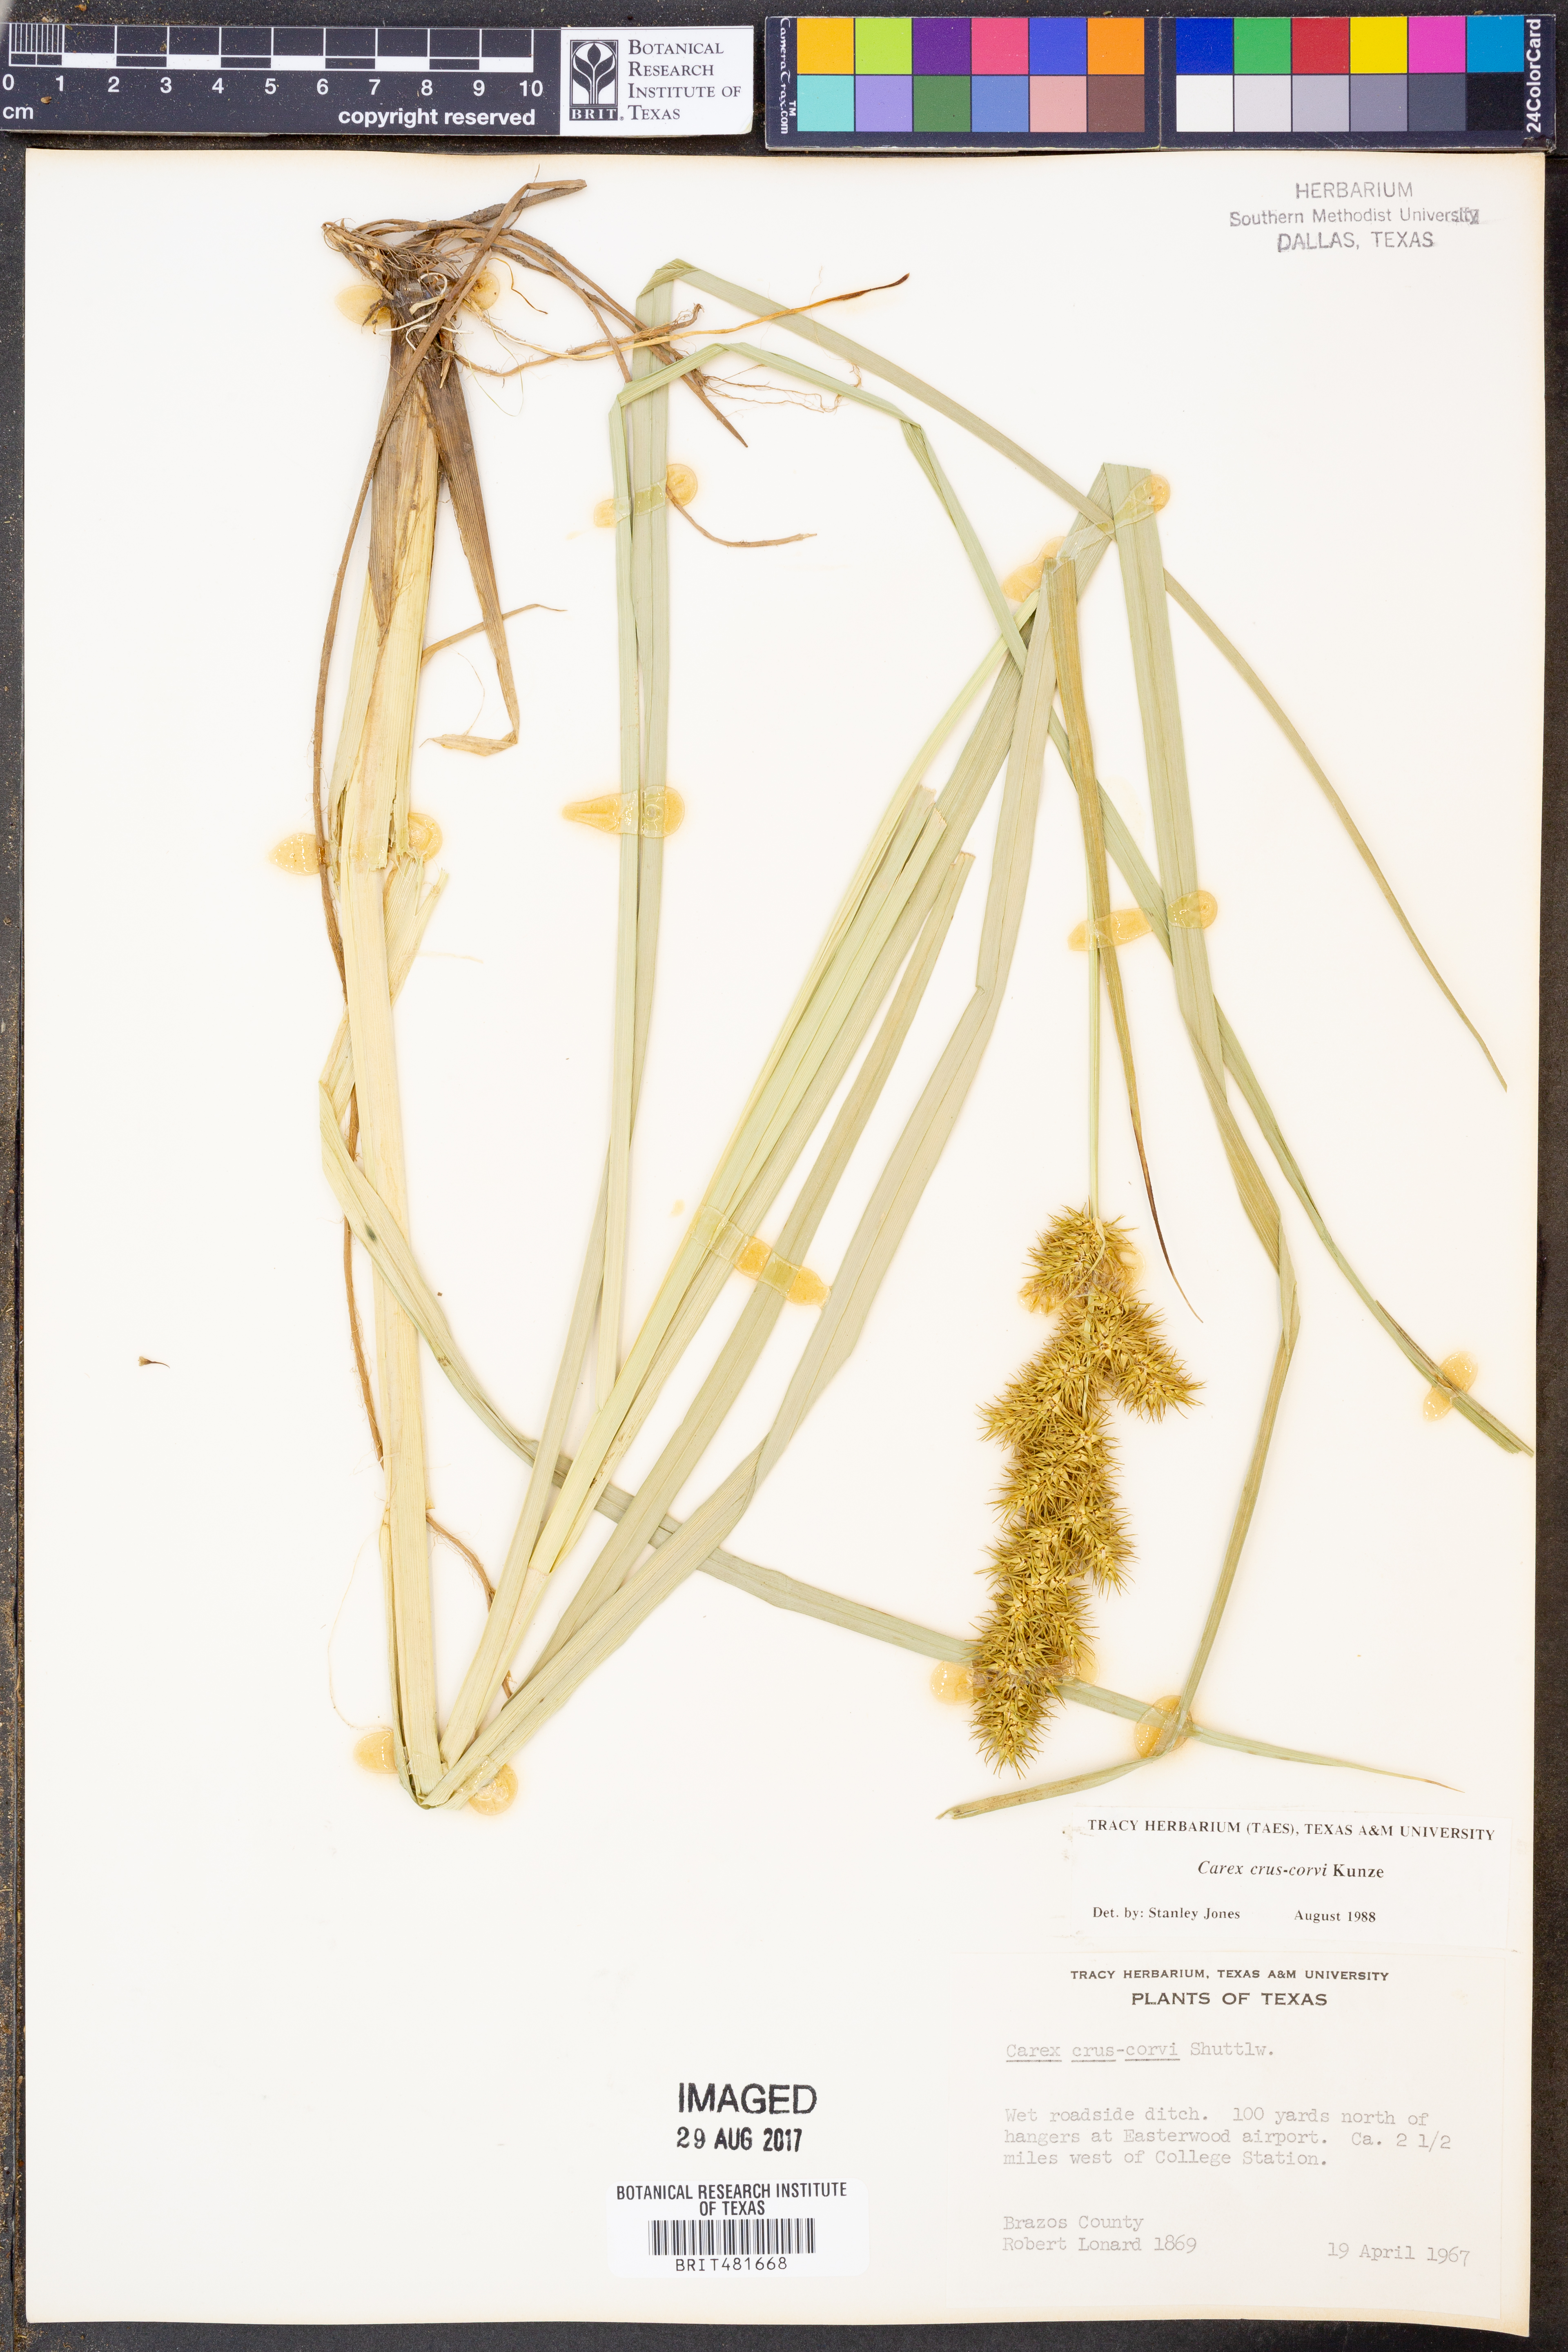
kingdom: Plantae
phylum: Tracheophyta
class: Liliopsida
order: Poales
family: Cyperaceae
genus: Carex
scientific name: Carex crus-corvi
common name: Crow-spur sedge
